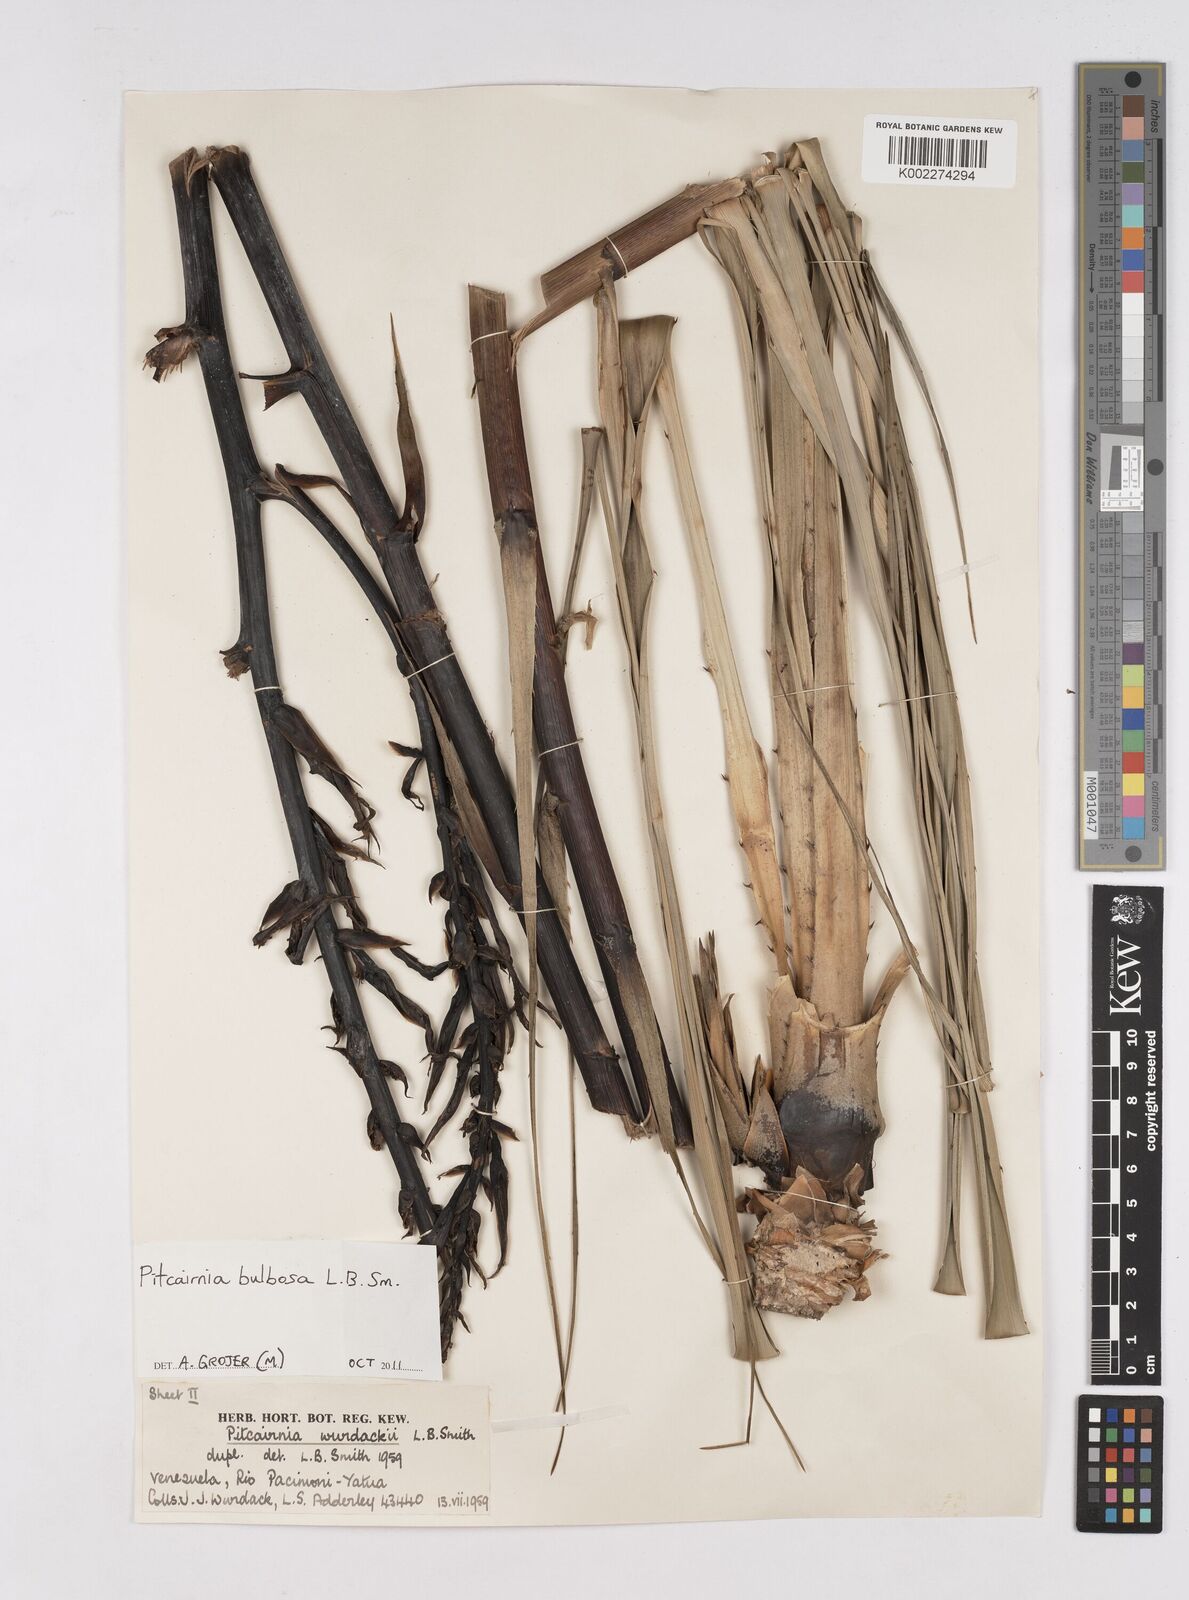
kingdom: Plantae
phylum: Tracheophyta
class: Liliopsida
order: Poales
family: Bromeliaceae
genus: Pitcairnia
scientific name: Pitcairnia bulbosa
